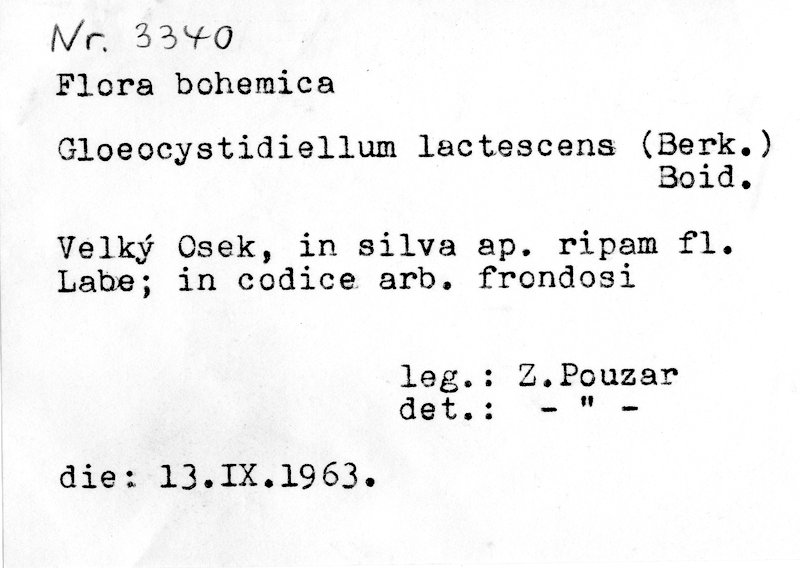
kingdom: Fungi
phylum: Basidiomycota
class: Agaricomycetes
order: Russulales
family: Peniophoraceae
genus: Gloiothele
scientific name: Gloiothele lactescens
